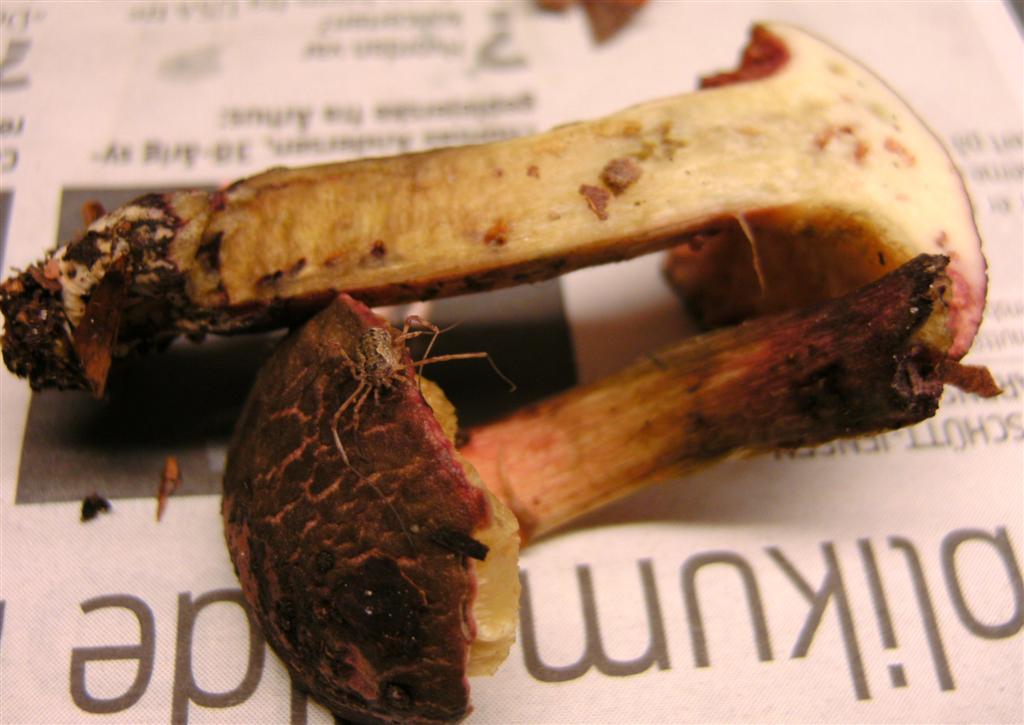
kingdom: Fungi
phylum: Basidiomycota
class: Agaricomycetes
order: Boletales
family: Boletaceae
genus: Xerocomellus
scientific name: Xerocomellus chrysenteron
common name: rødsprukken rørhat
